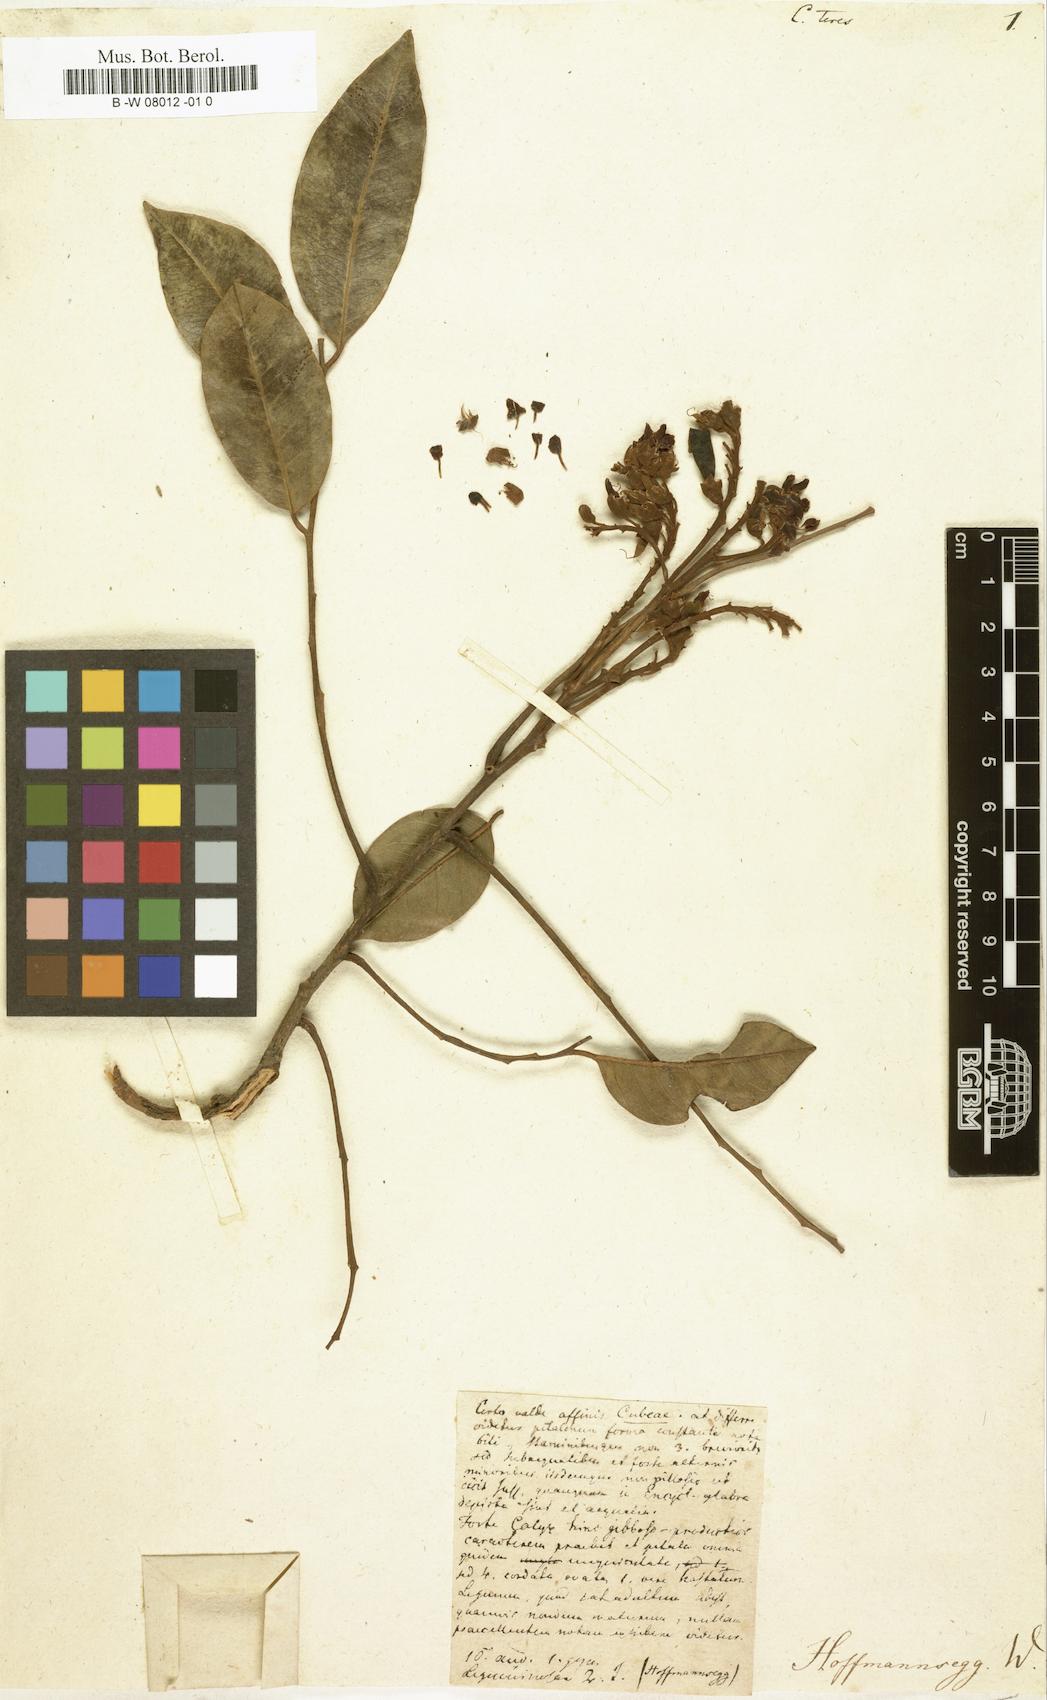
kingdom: Plantae
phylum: Tracheophyta
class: Magnoliopsida
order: Fabales
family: Fabaceae
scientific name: Fabaceae
